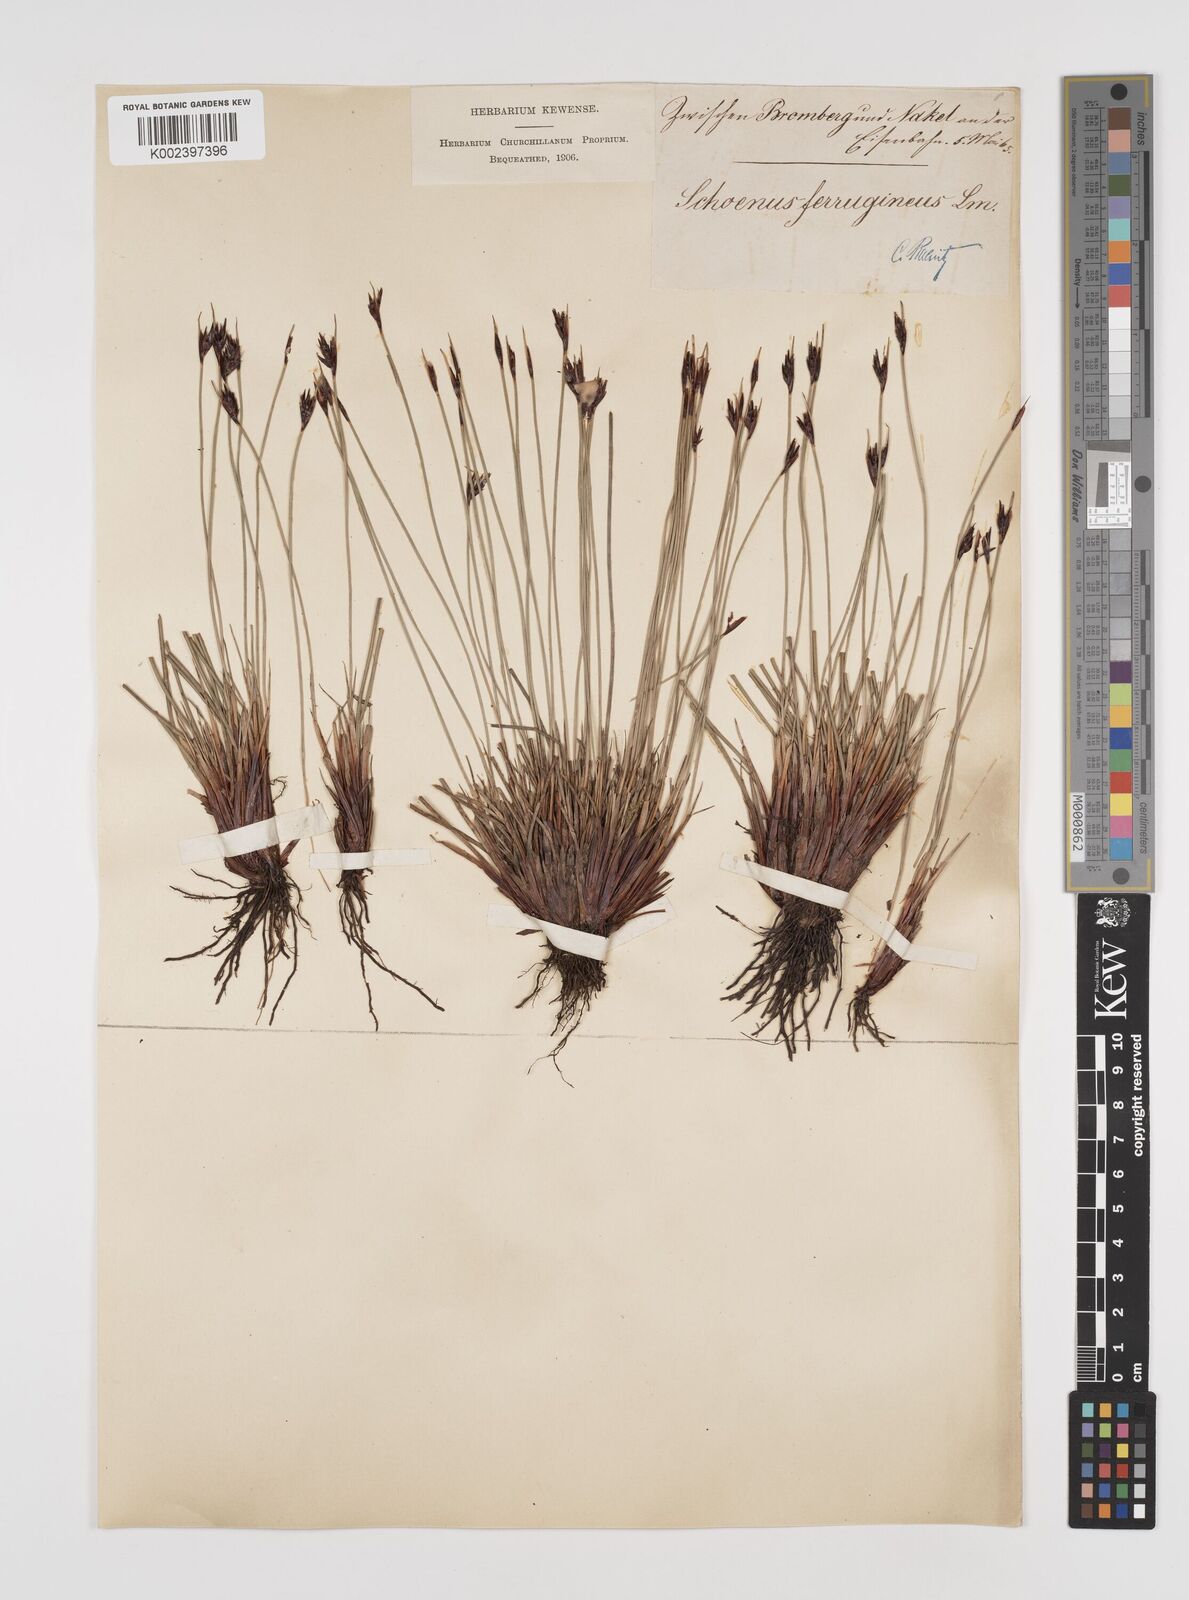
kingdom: Plantae
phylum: Tracheophyta
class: Liliopsida
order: Poales
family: Cyperaceae
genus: Schoenus
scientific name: Schoenus ferrugineus
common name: Brown bog-rush
